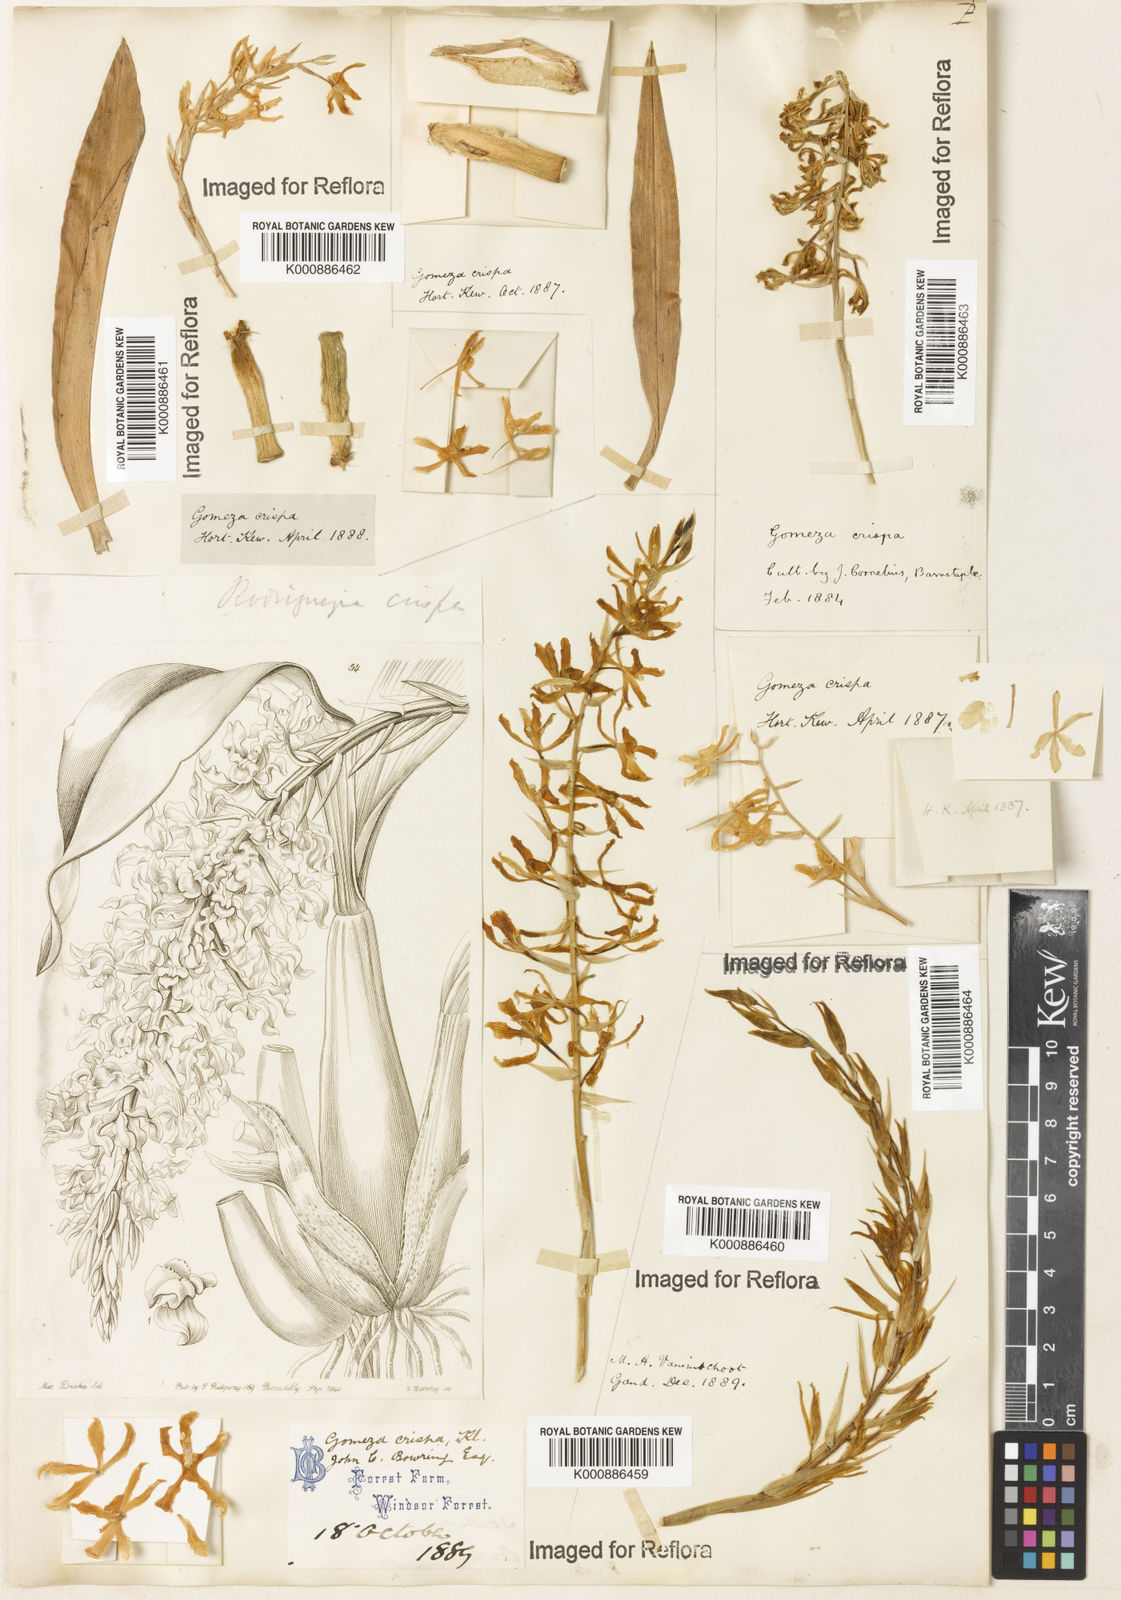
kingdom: Plantae
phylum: Tracheophyta
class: Liliopsida
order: Asparagales
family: Orchidaceae
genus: Gomesa
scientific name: Gomesa crispa
